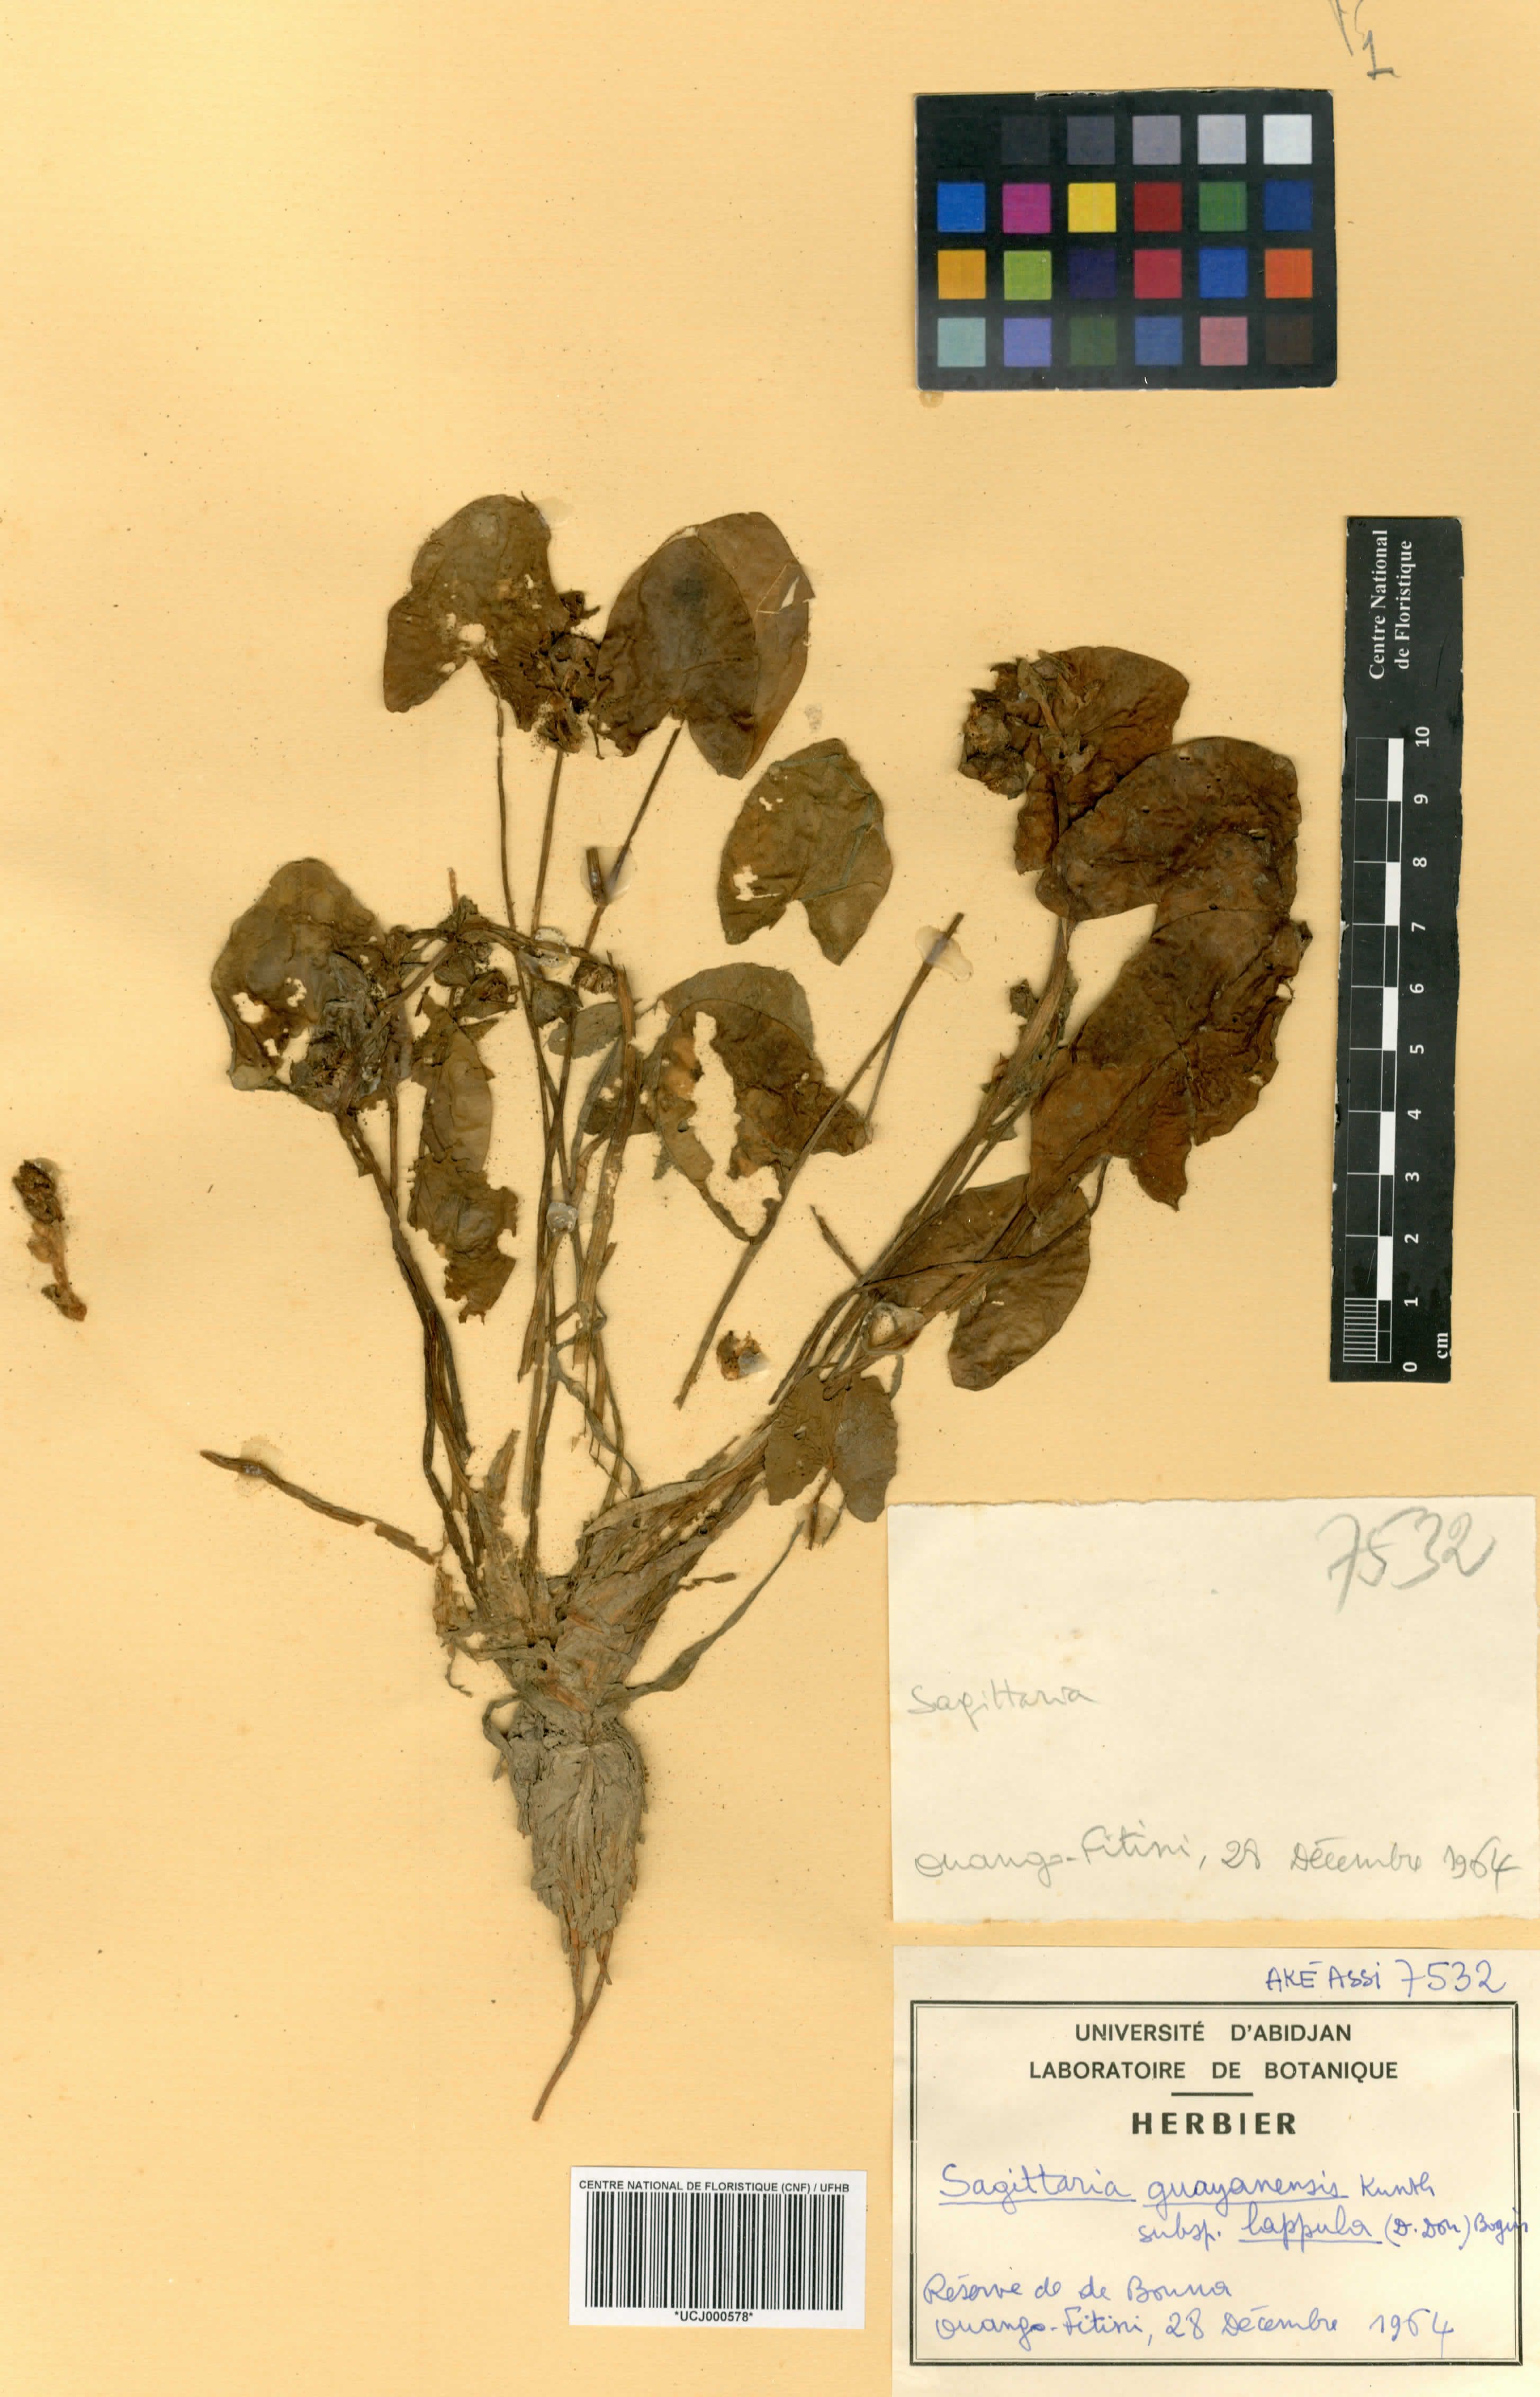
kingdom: Plantae
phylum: Tracheophyta
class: Liliopsida
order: Alismatales
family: Alismataceae
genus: Sagittaria
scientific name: Sagittaria guayanensis
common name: Guyanese arrowhead
